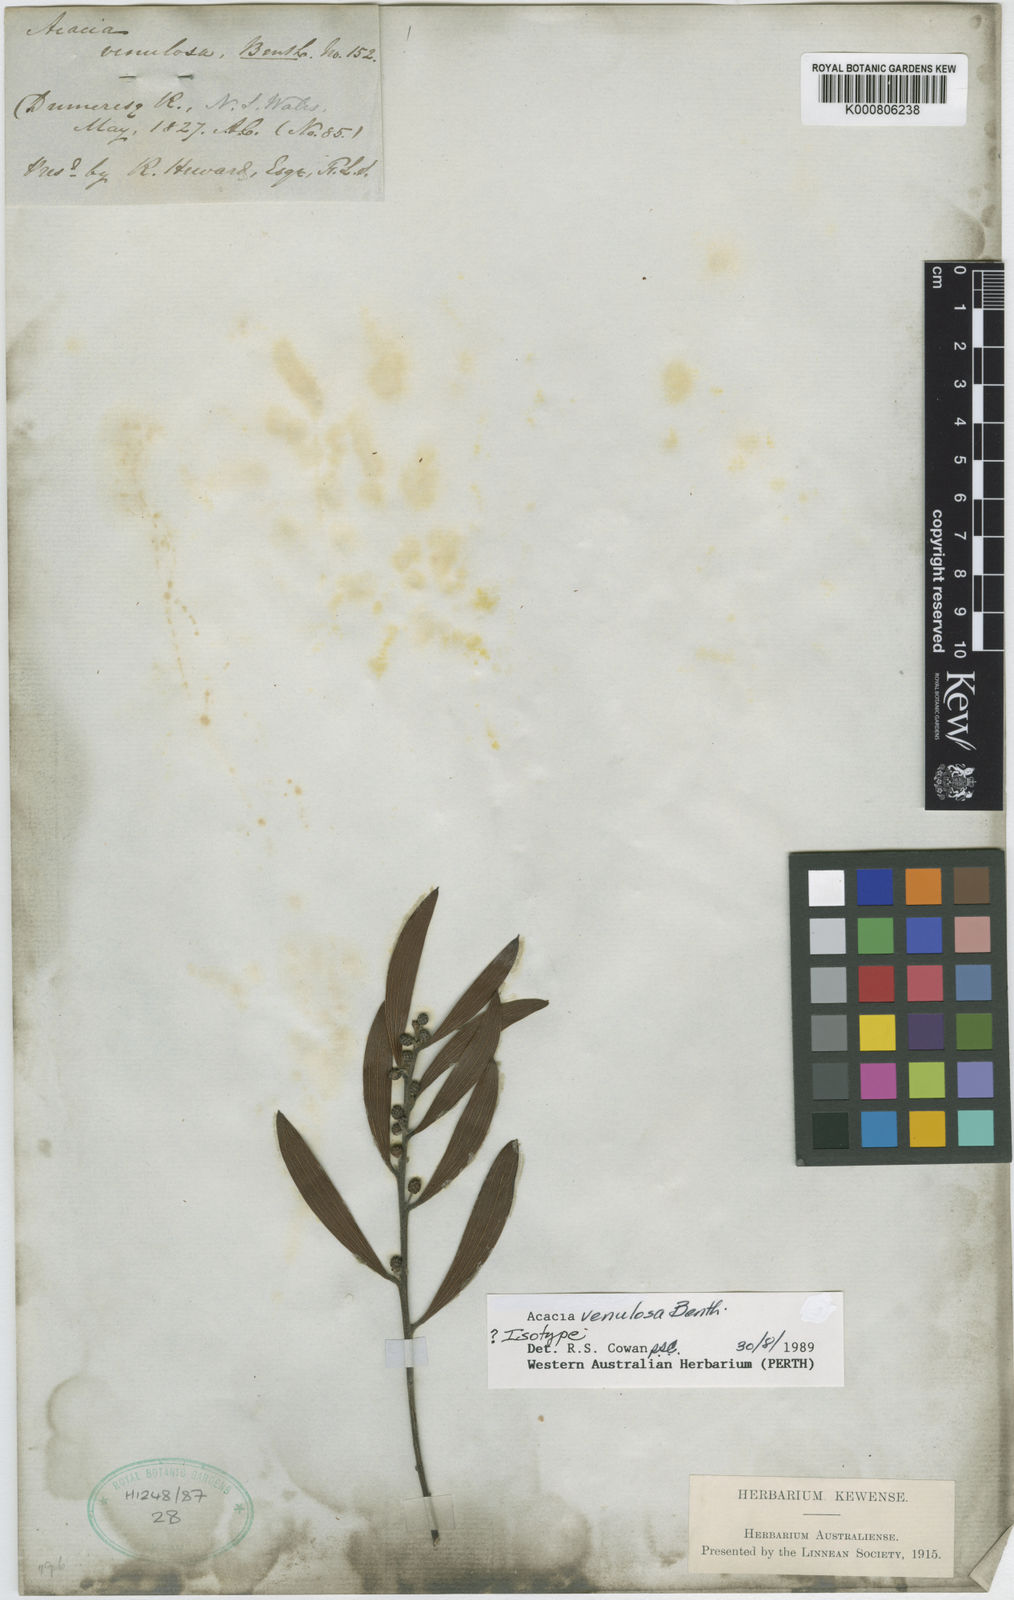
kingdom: Plantae
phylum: Tracheophyta
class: Magnoliopsida
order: Fabales
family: Fabaceae
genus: Acacia
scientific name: Acacia venulosa
